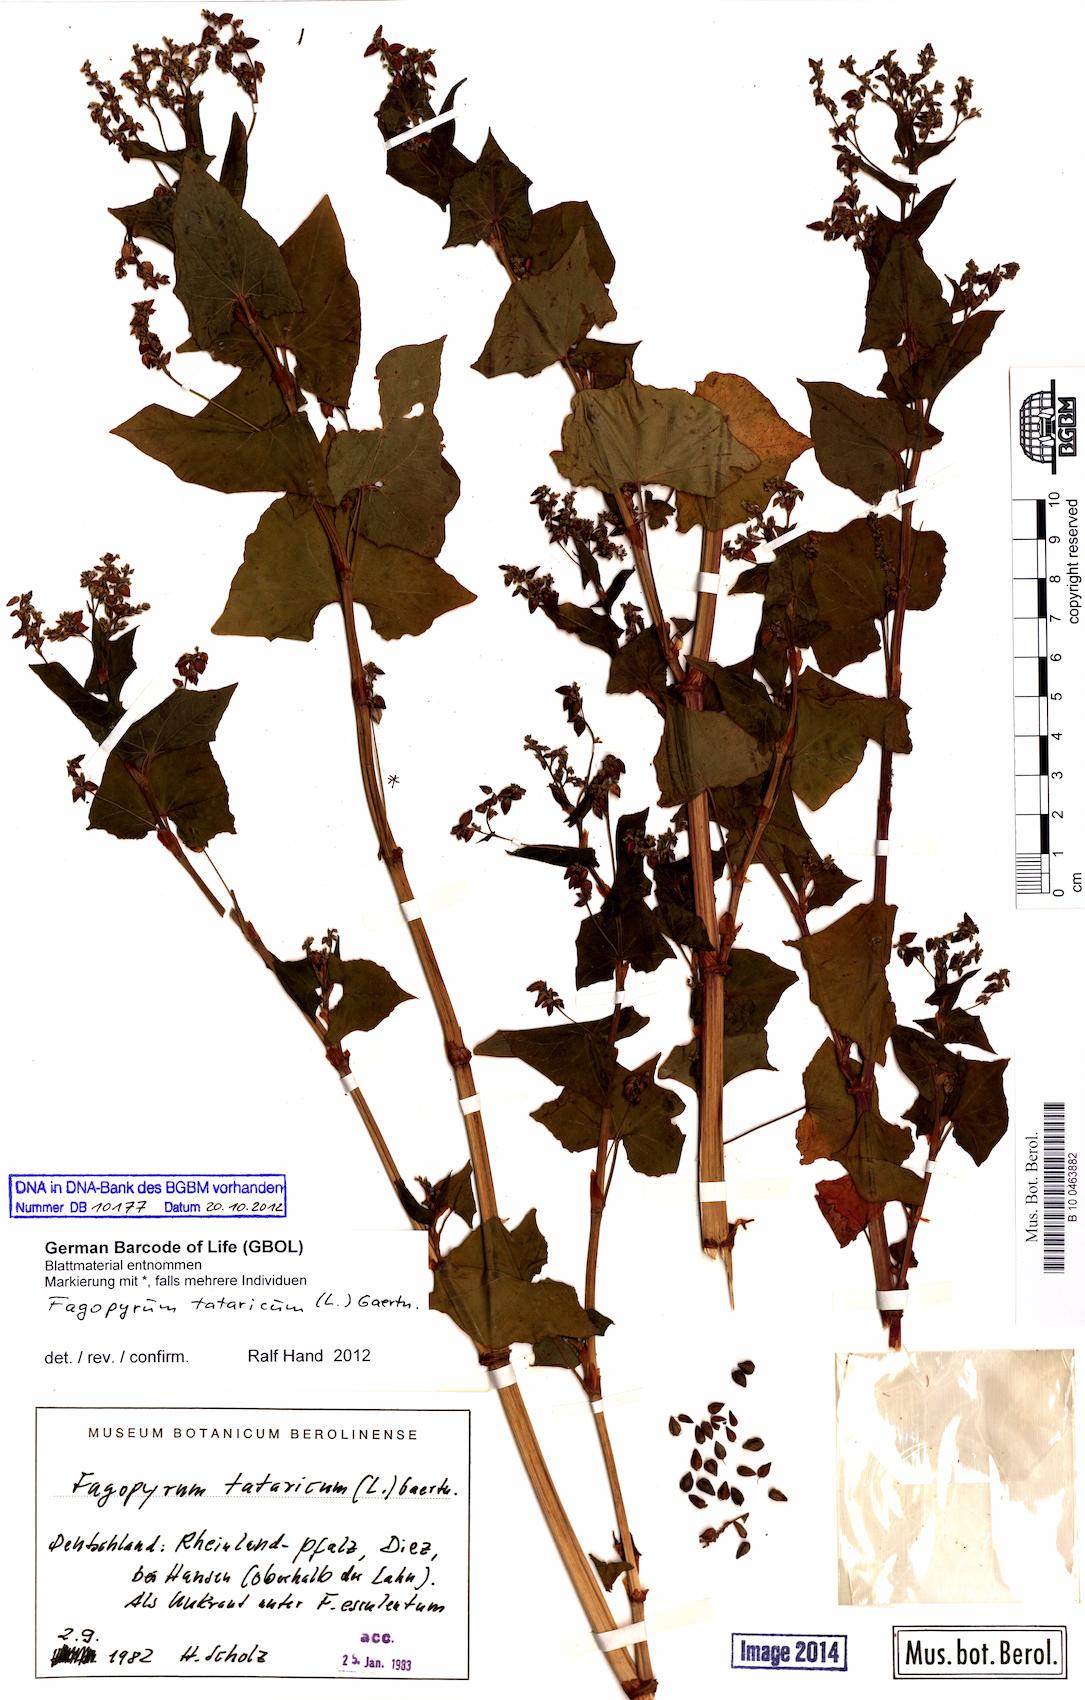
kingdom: Plantae
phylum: Tracheophyta
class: Magnoliopsida
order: Caryophyllales
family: Polygonaceae
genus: Fagopyrum
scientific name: Fagopyrum tataricum
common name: Green buckwheat
